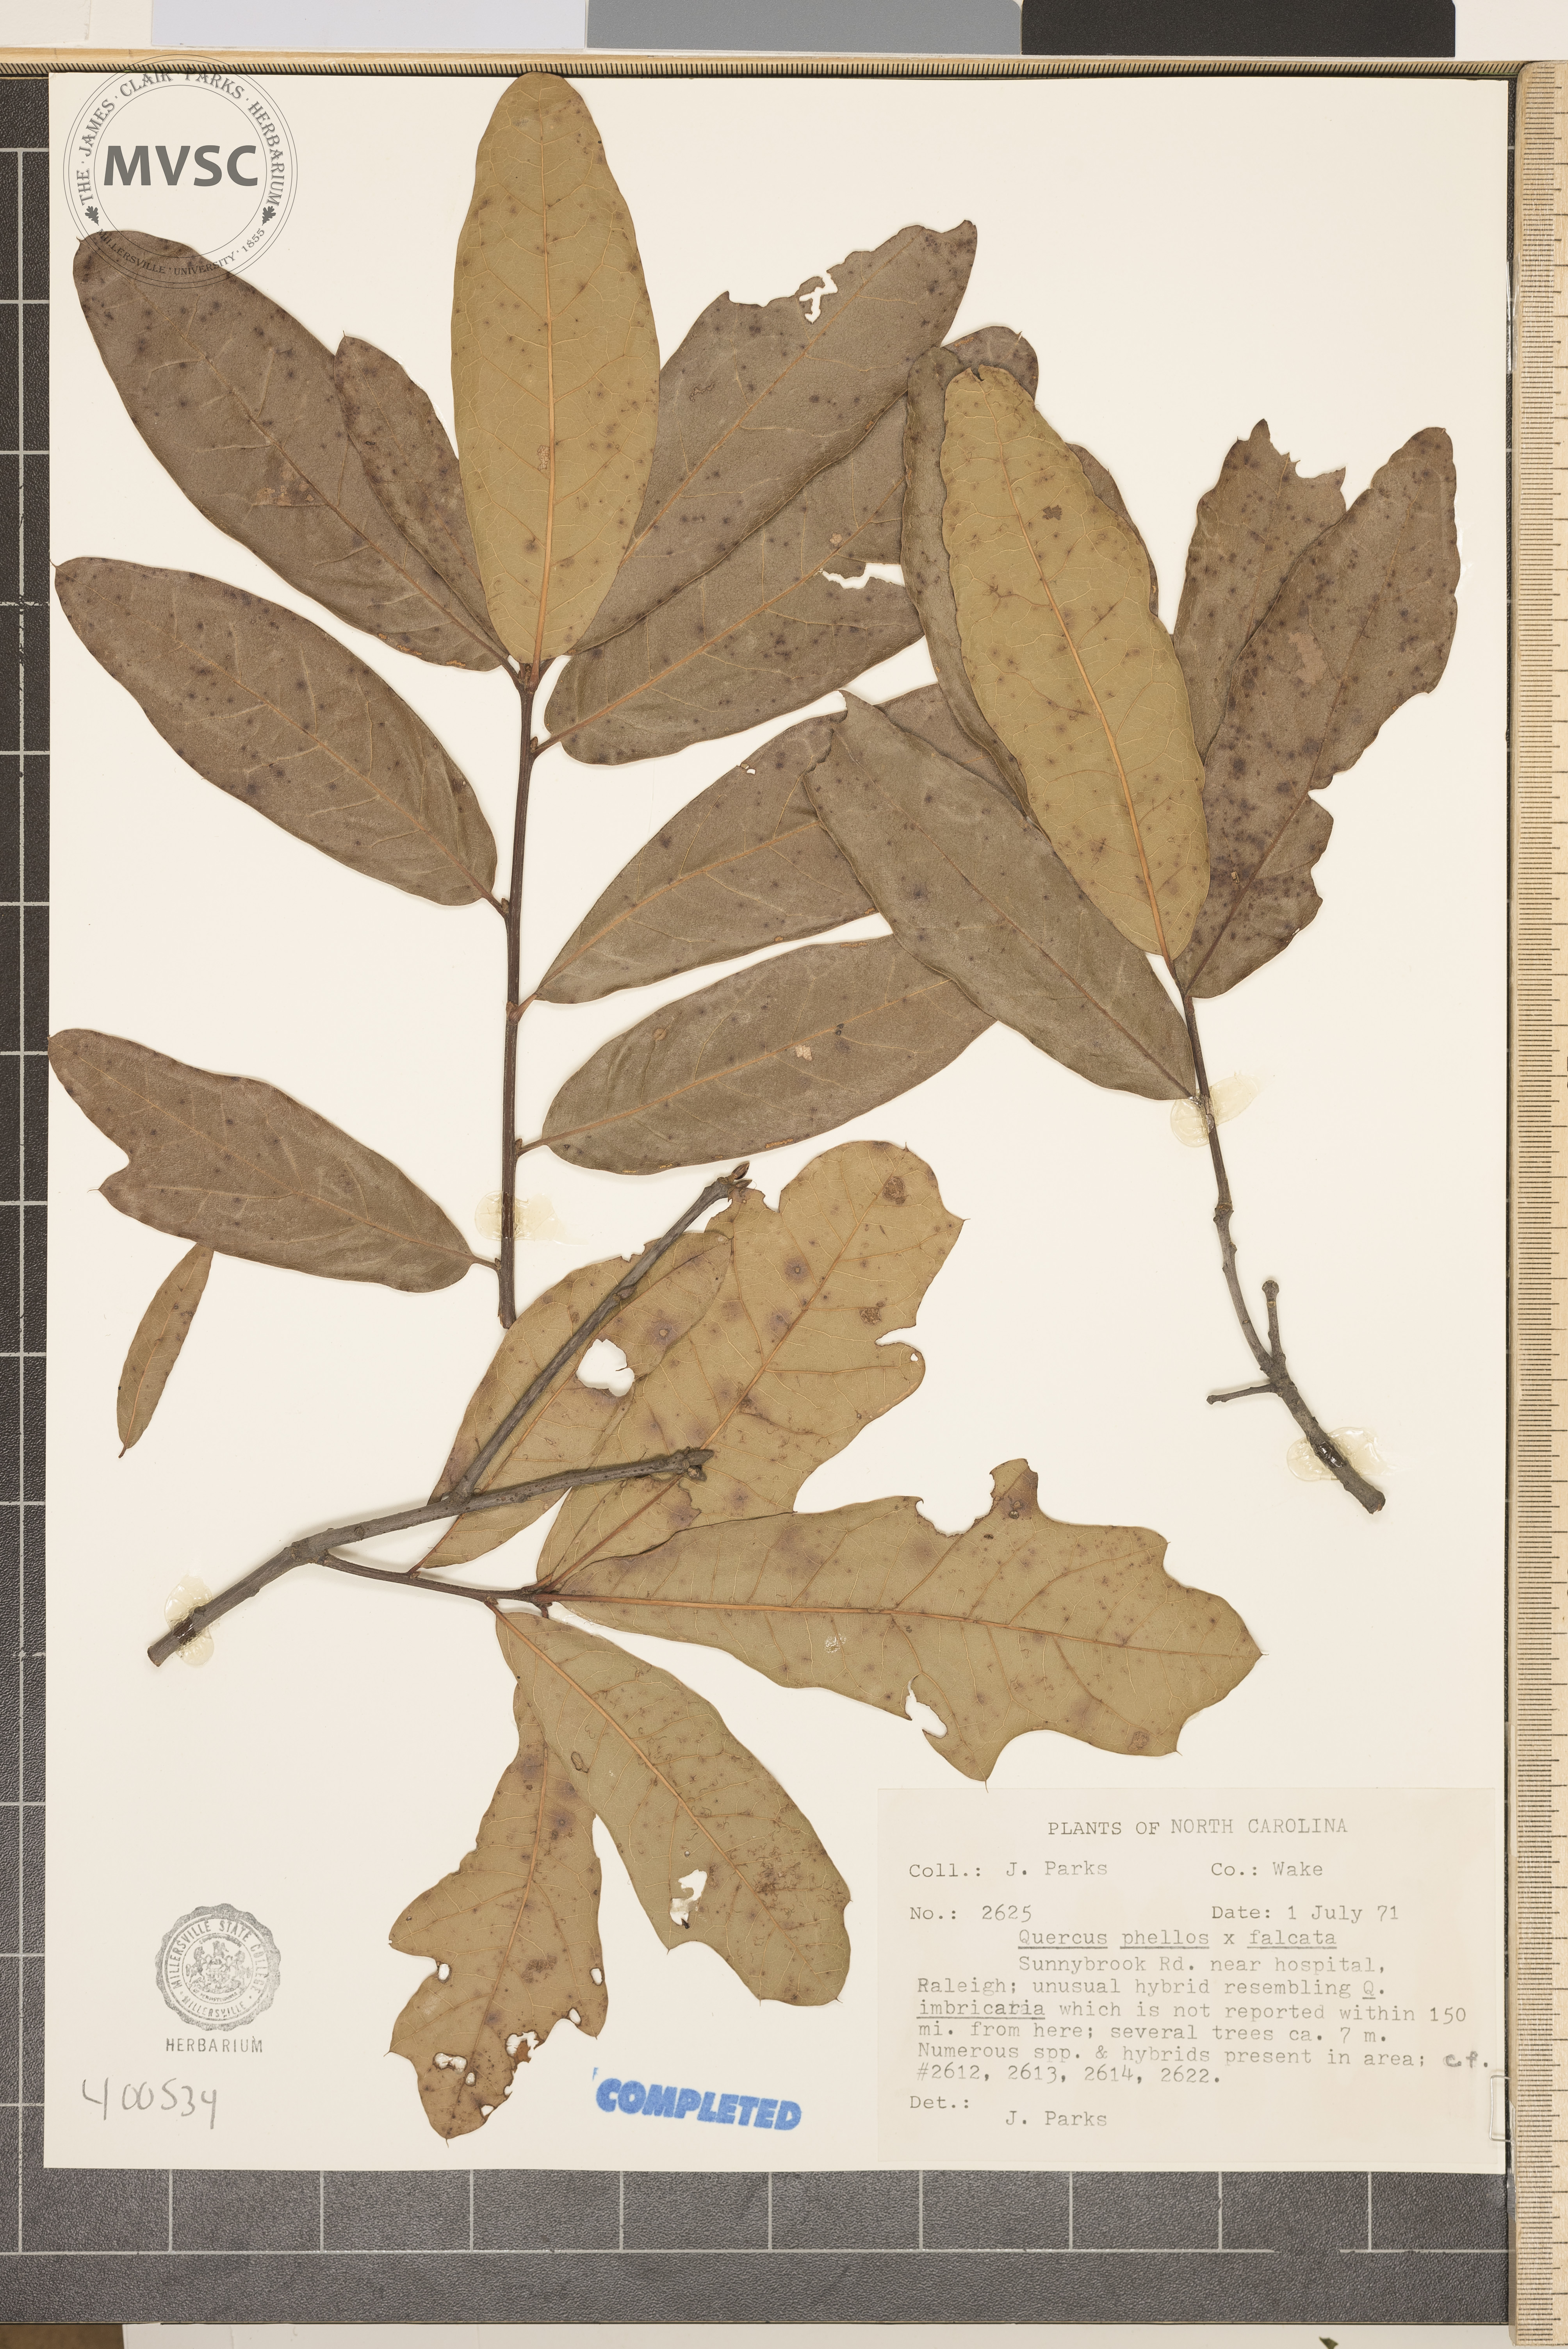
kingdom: Plantae
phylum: Tracheophyta
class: Magnoliopsida
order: Fagales
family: Fagaceae
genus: Quercus
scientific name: Quercus
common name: oak
